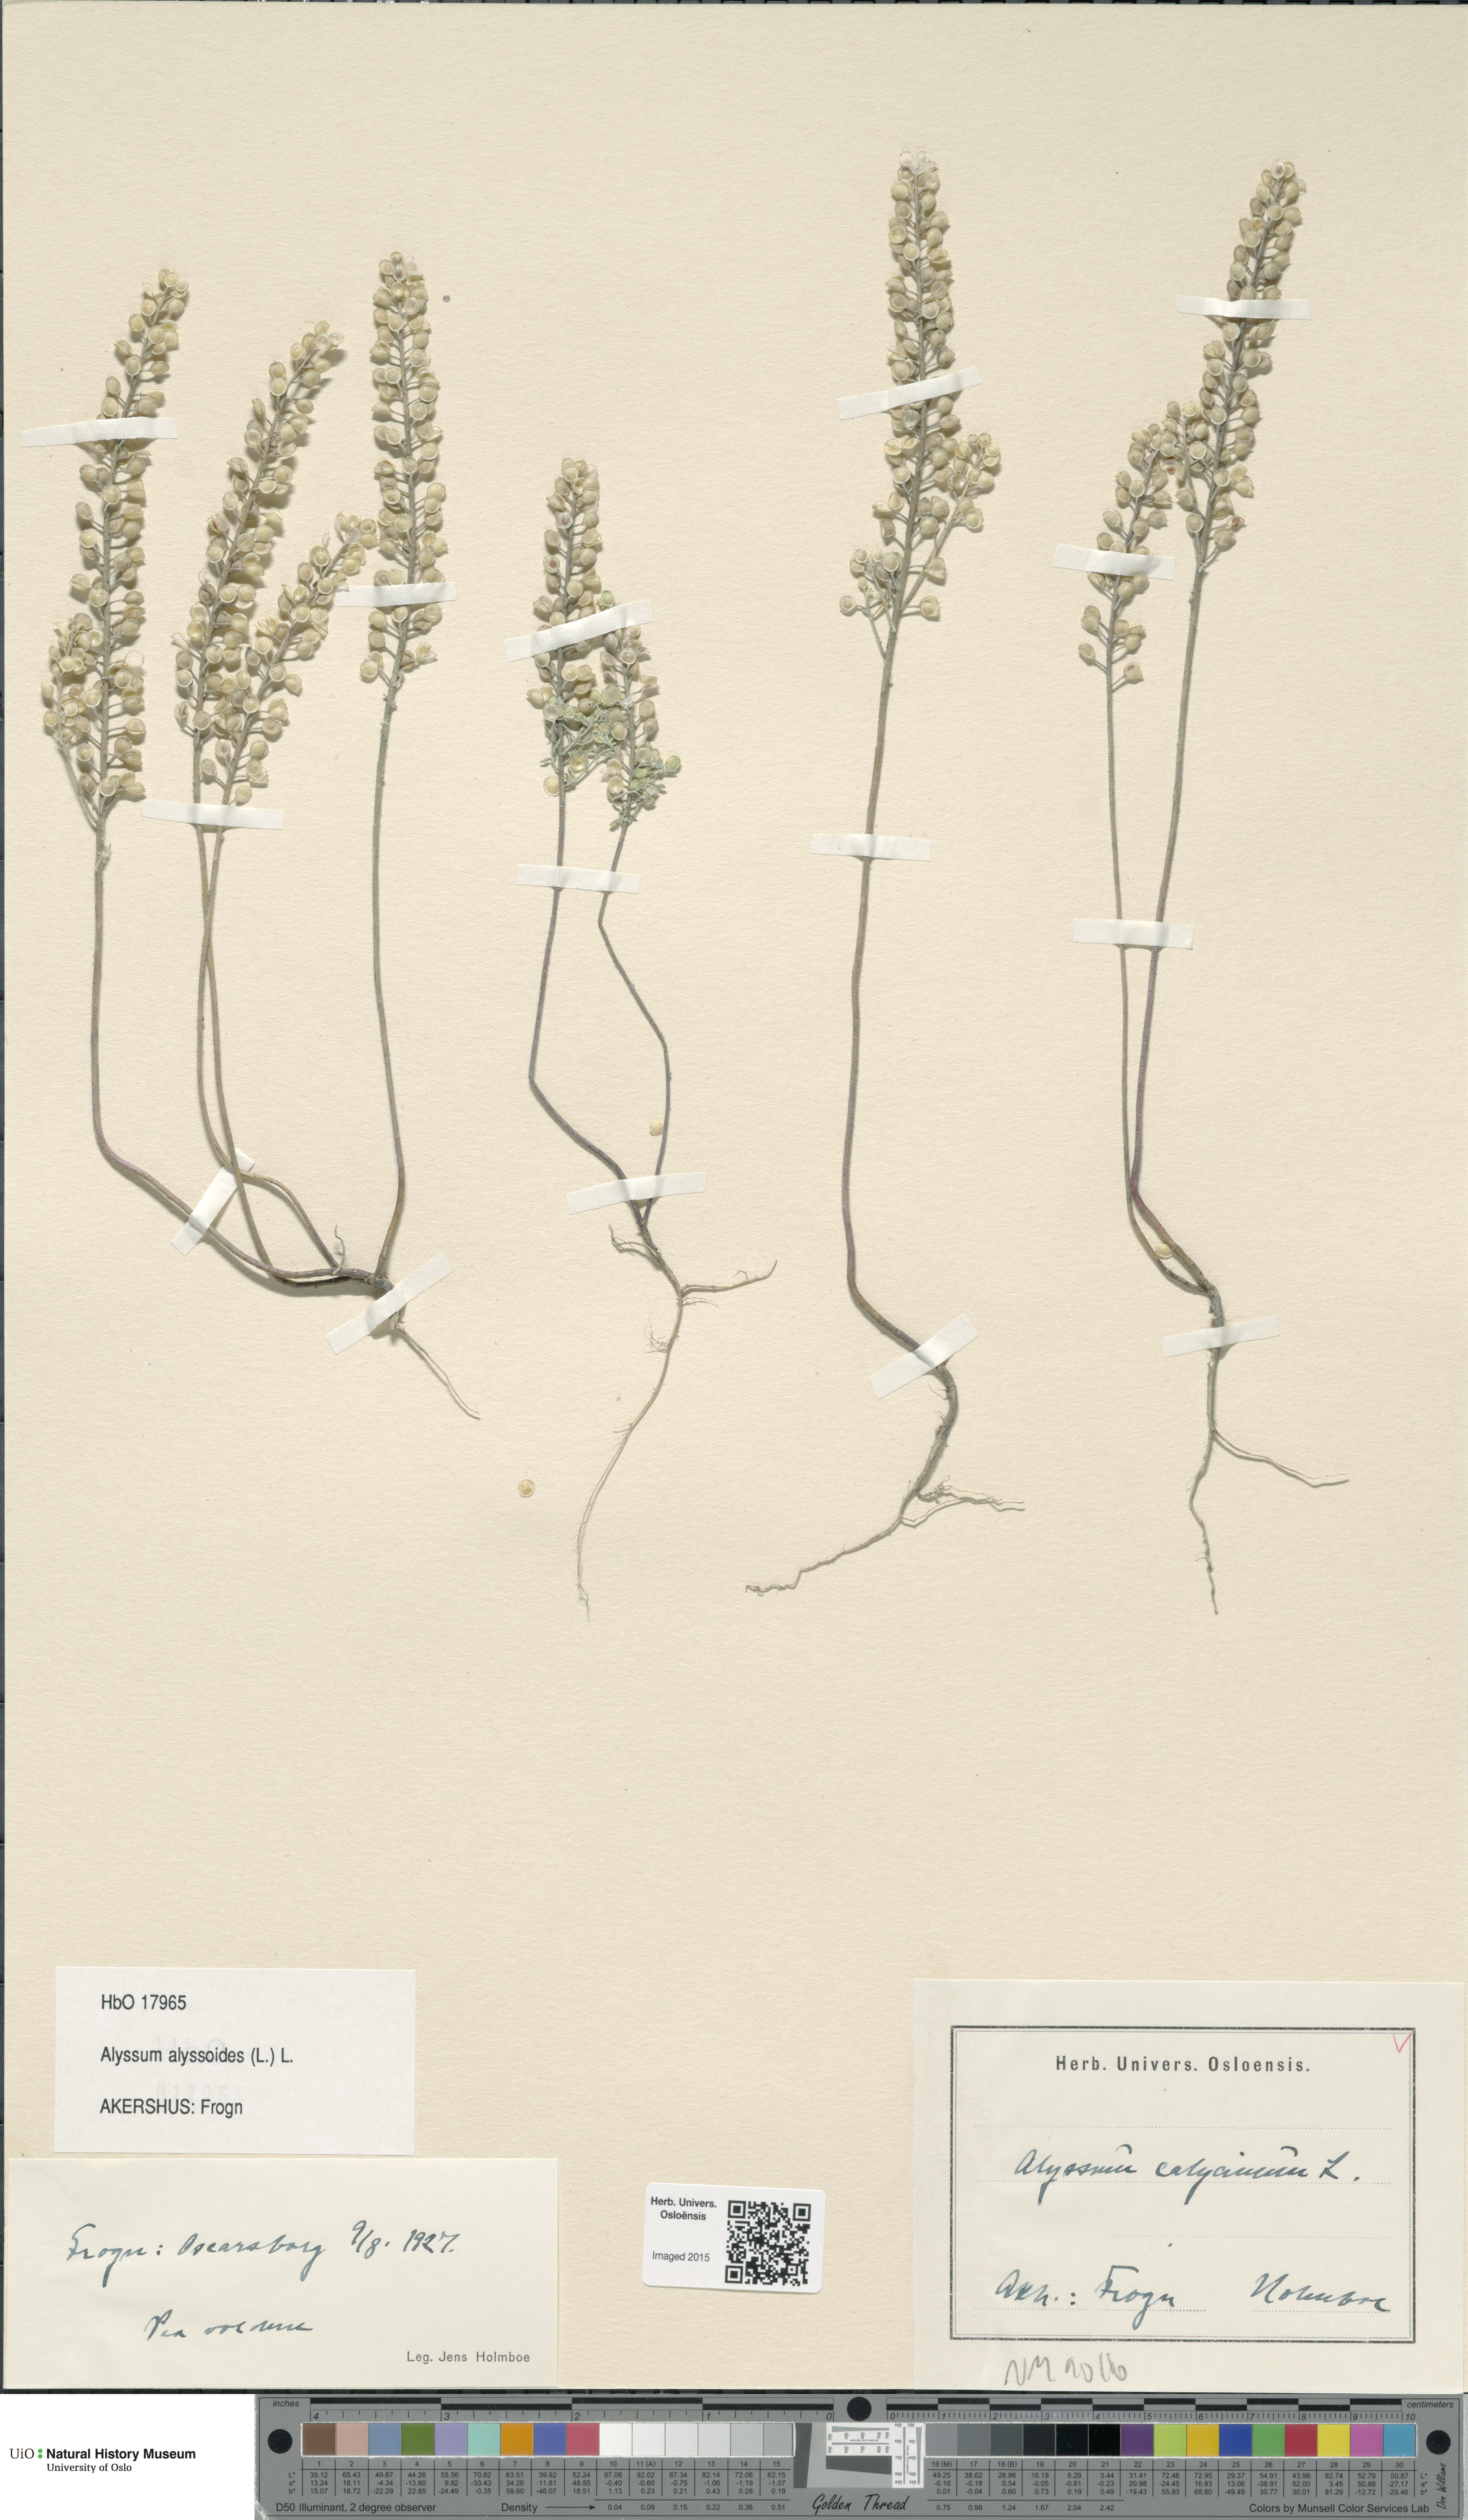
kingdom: Plantae
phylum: Tracheophyta
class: Magnoliopsida
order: Brassicales
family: Brassicaceae
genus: Alyssum
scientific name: Alyssum alyssoides
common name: Small alison
